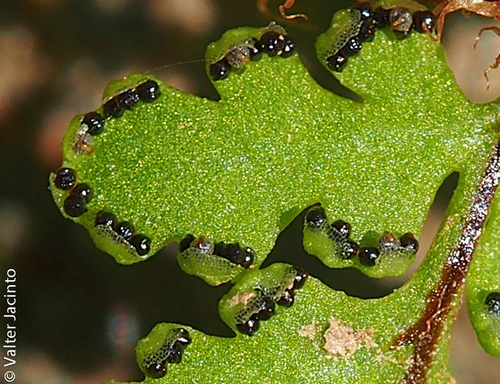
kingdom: Plantae
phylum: Tracheophyta
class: Polypodiopsida
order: Polypodiales
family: Pteridaceae
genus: Oeosporangium
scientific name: Oeosporangium pteridioides
